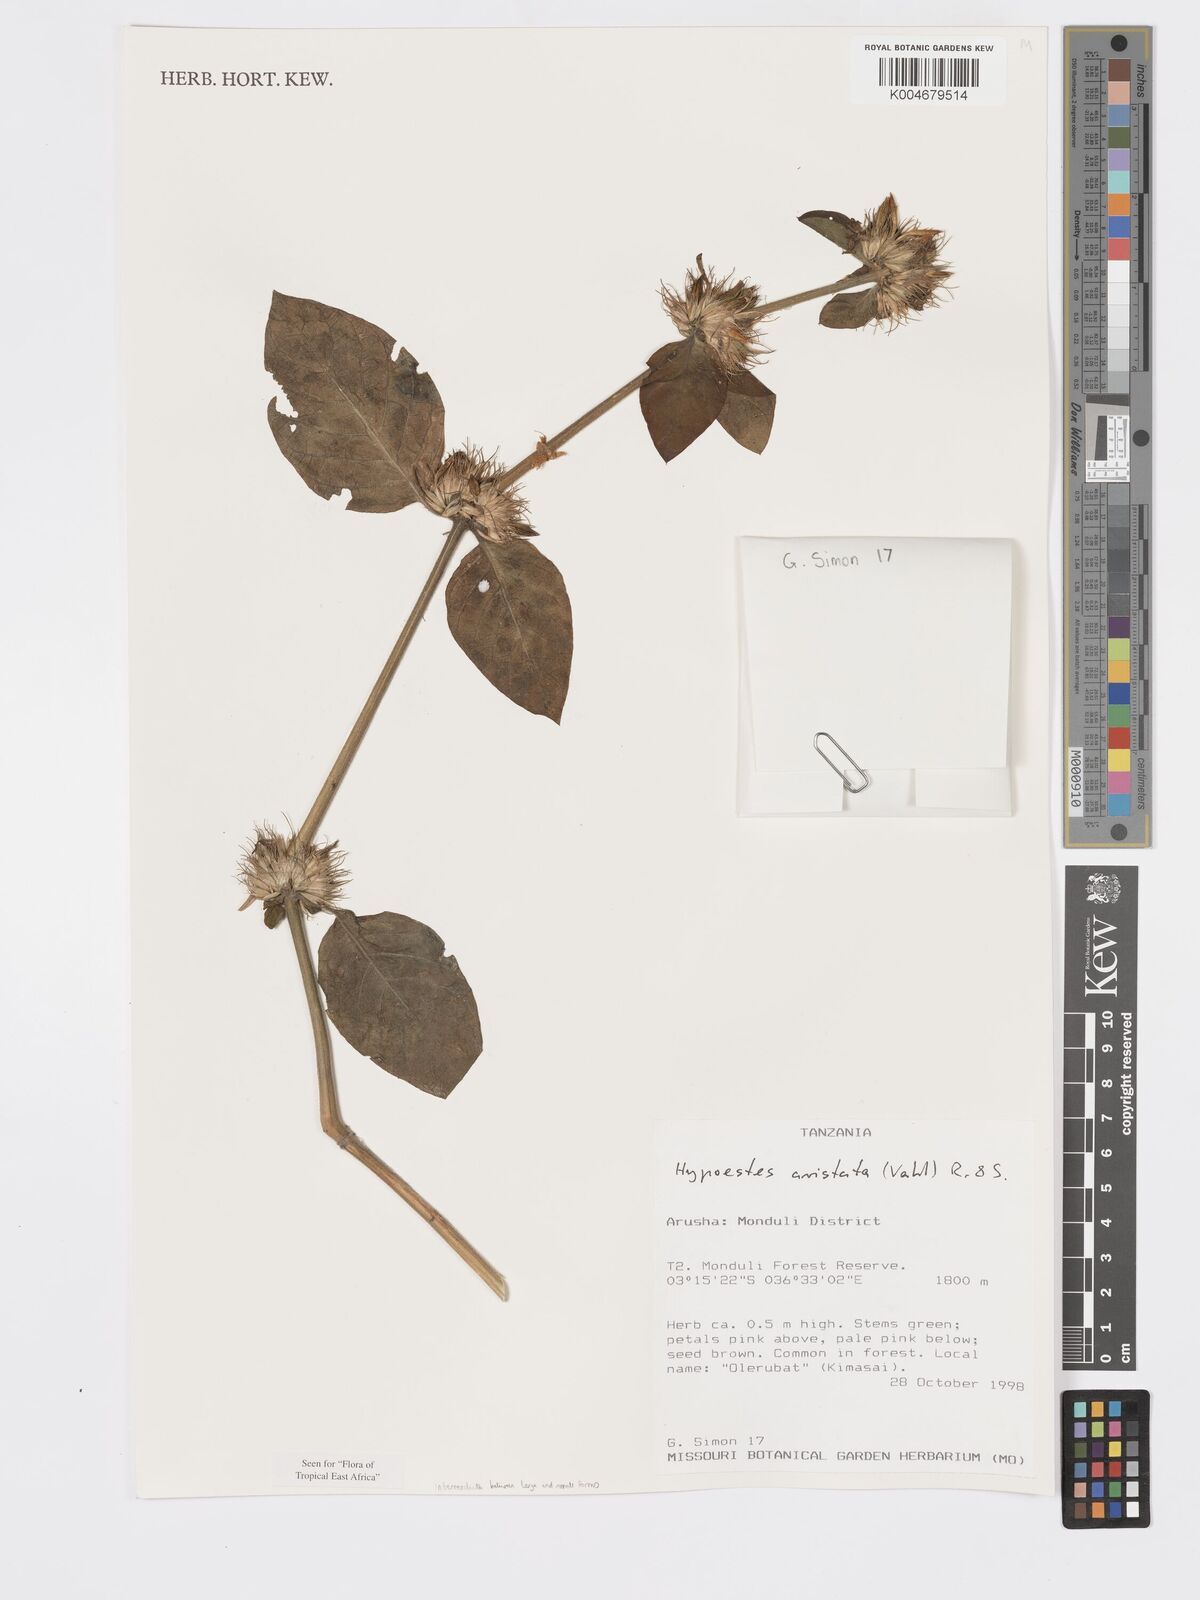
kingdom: Plantae
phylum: Tracheophyta
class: Magnoliopsida
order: Lamiales
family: Acanthaceae
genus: Hypoestes
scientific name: Hypoestes aristata
